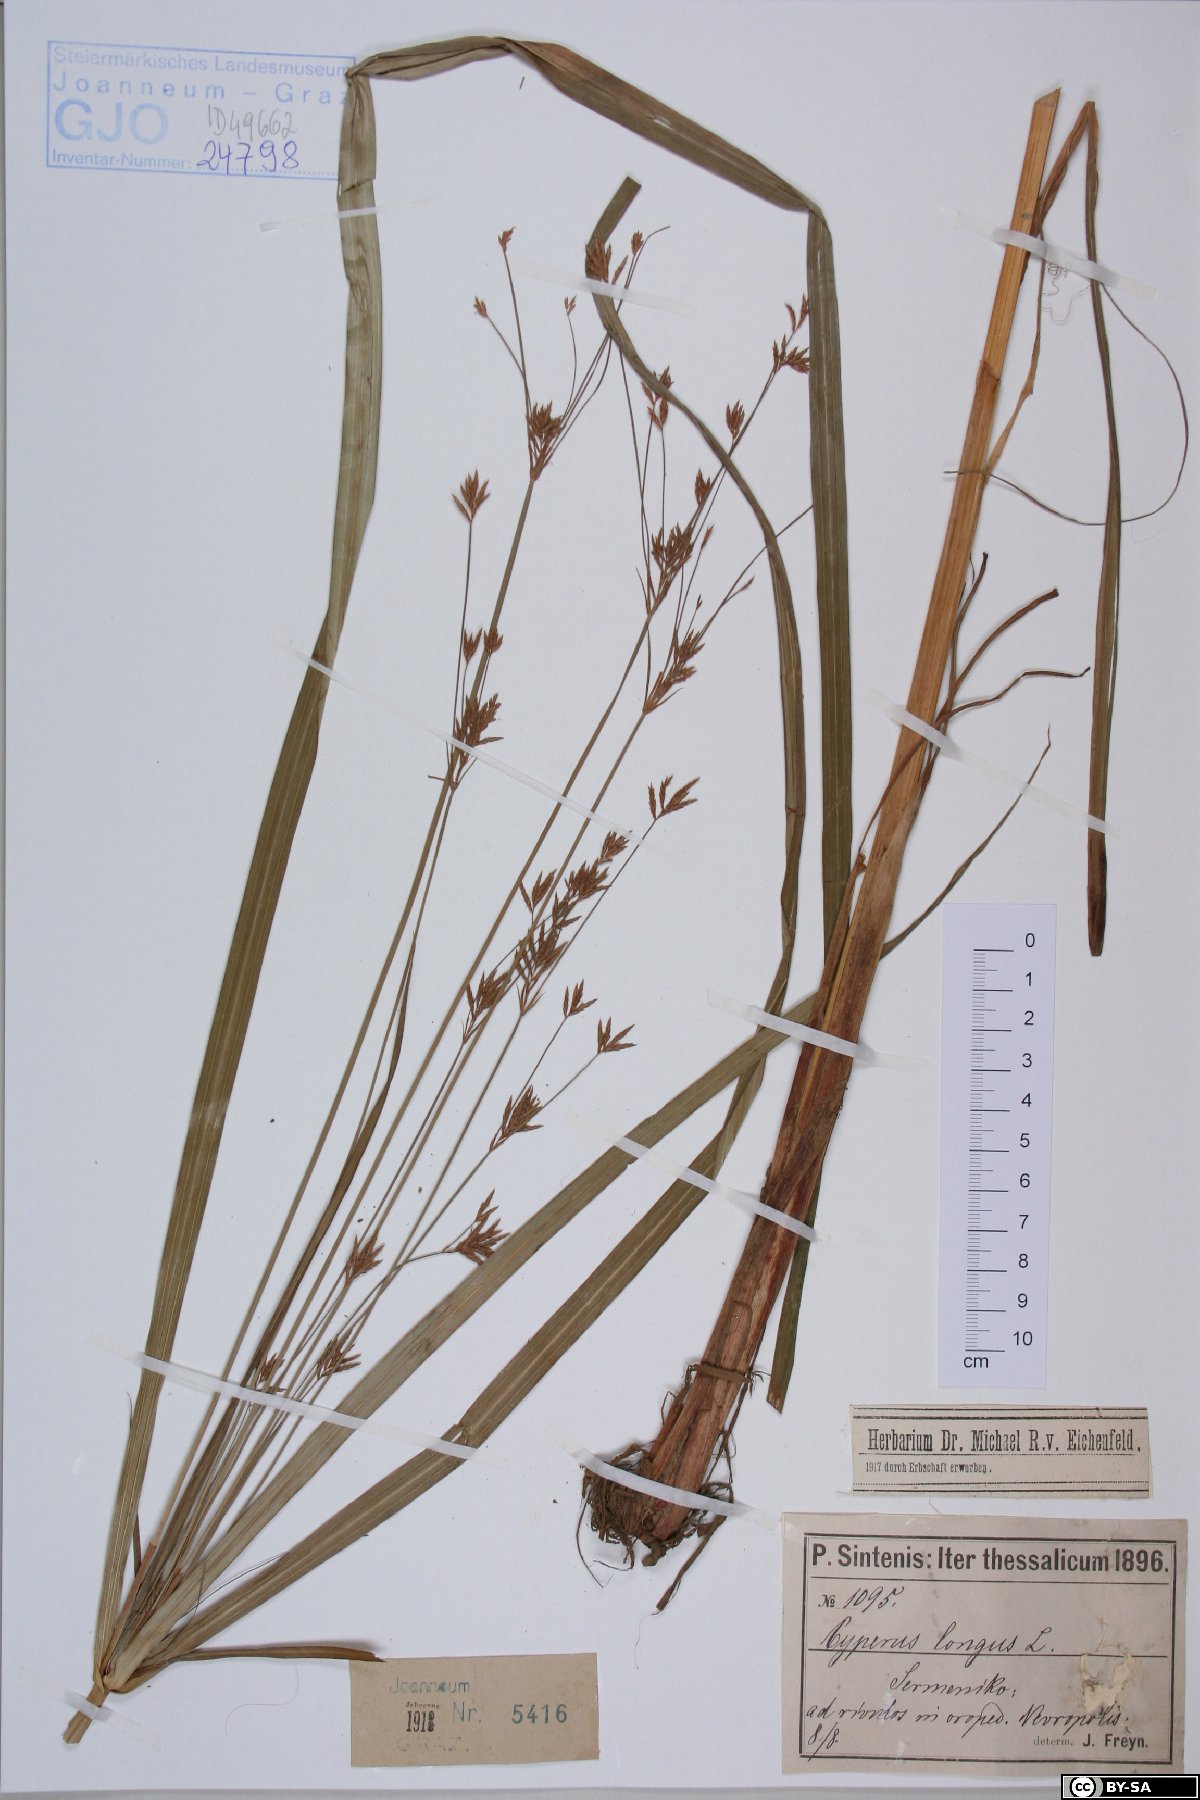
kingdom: Plantae
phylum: Tracheophyta
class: Liliopsida
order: Poales
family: Cyperaceae
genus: Cyperus
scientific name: Cyperus longus
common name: Galingale
